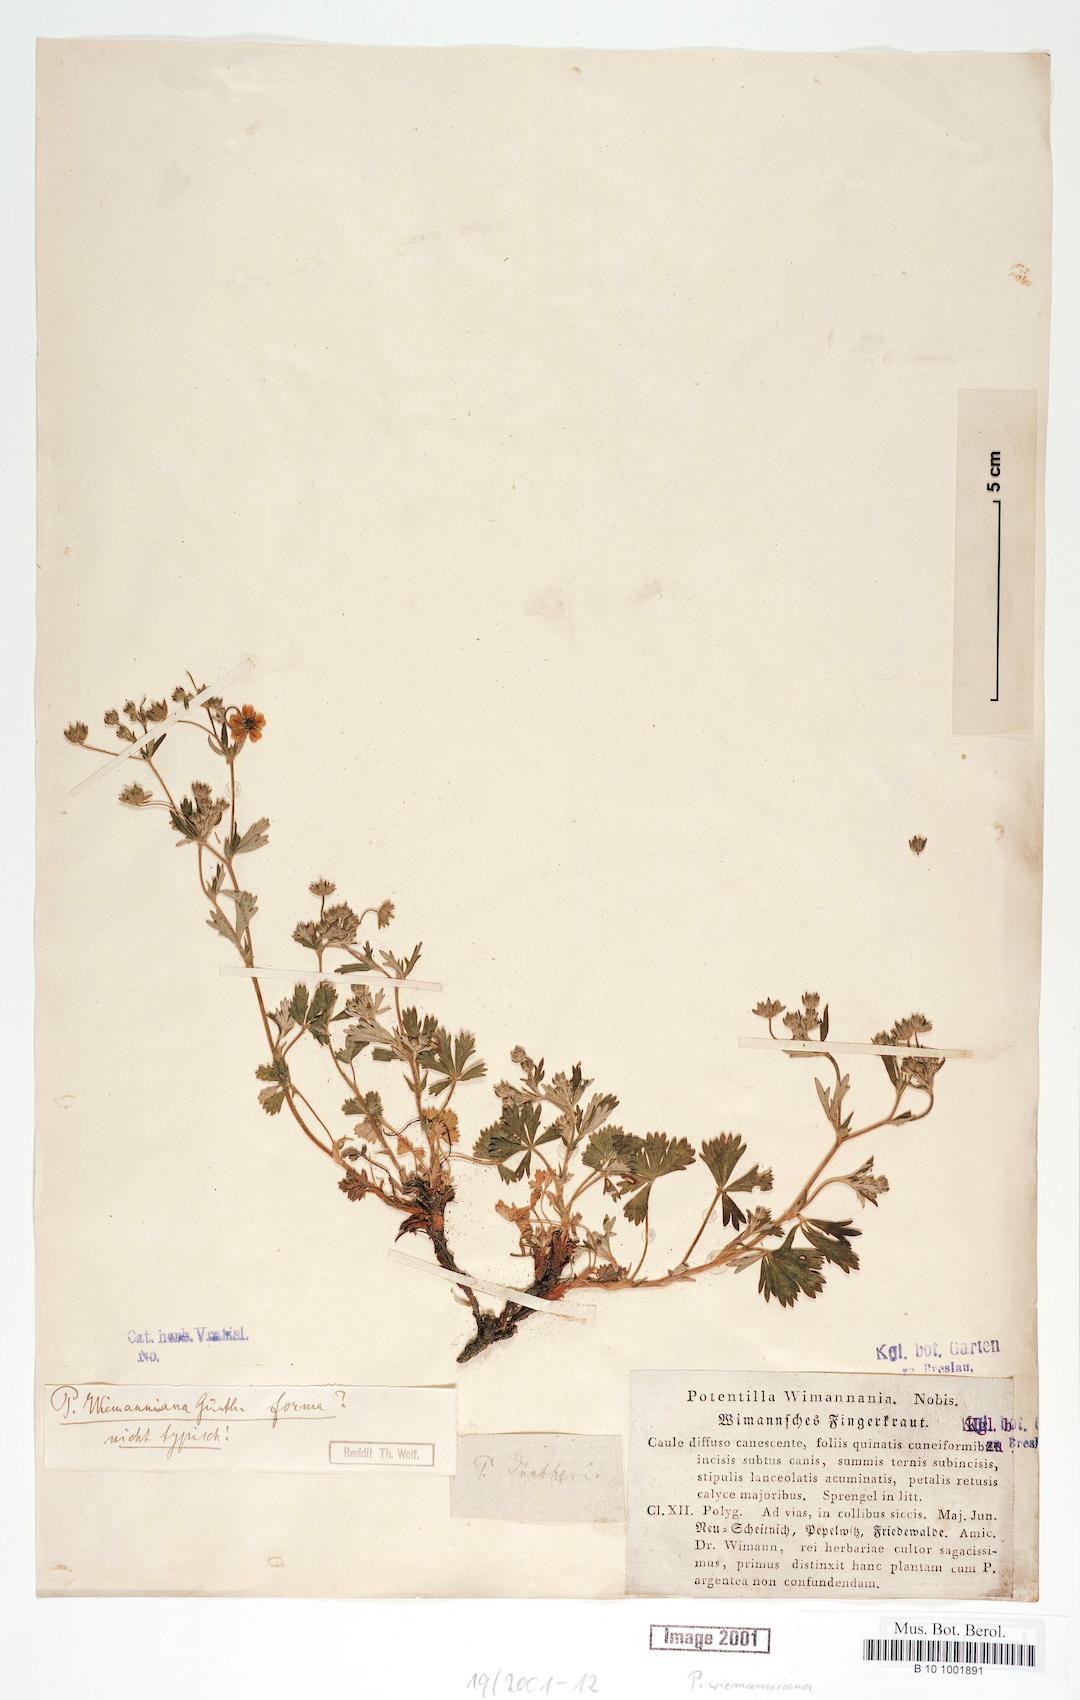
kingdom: Plantae
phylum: Tracheophyta
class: Magnoliopsida
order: Rosales
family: Rosaceae
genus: Potentilla
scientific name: Potentilla
